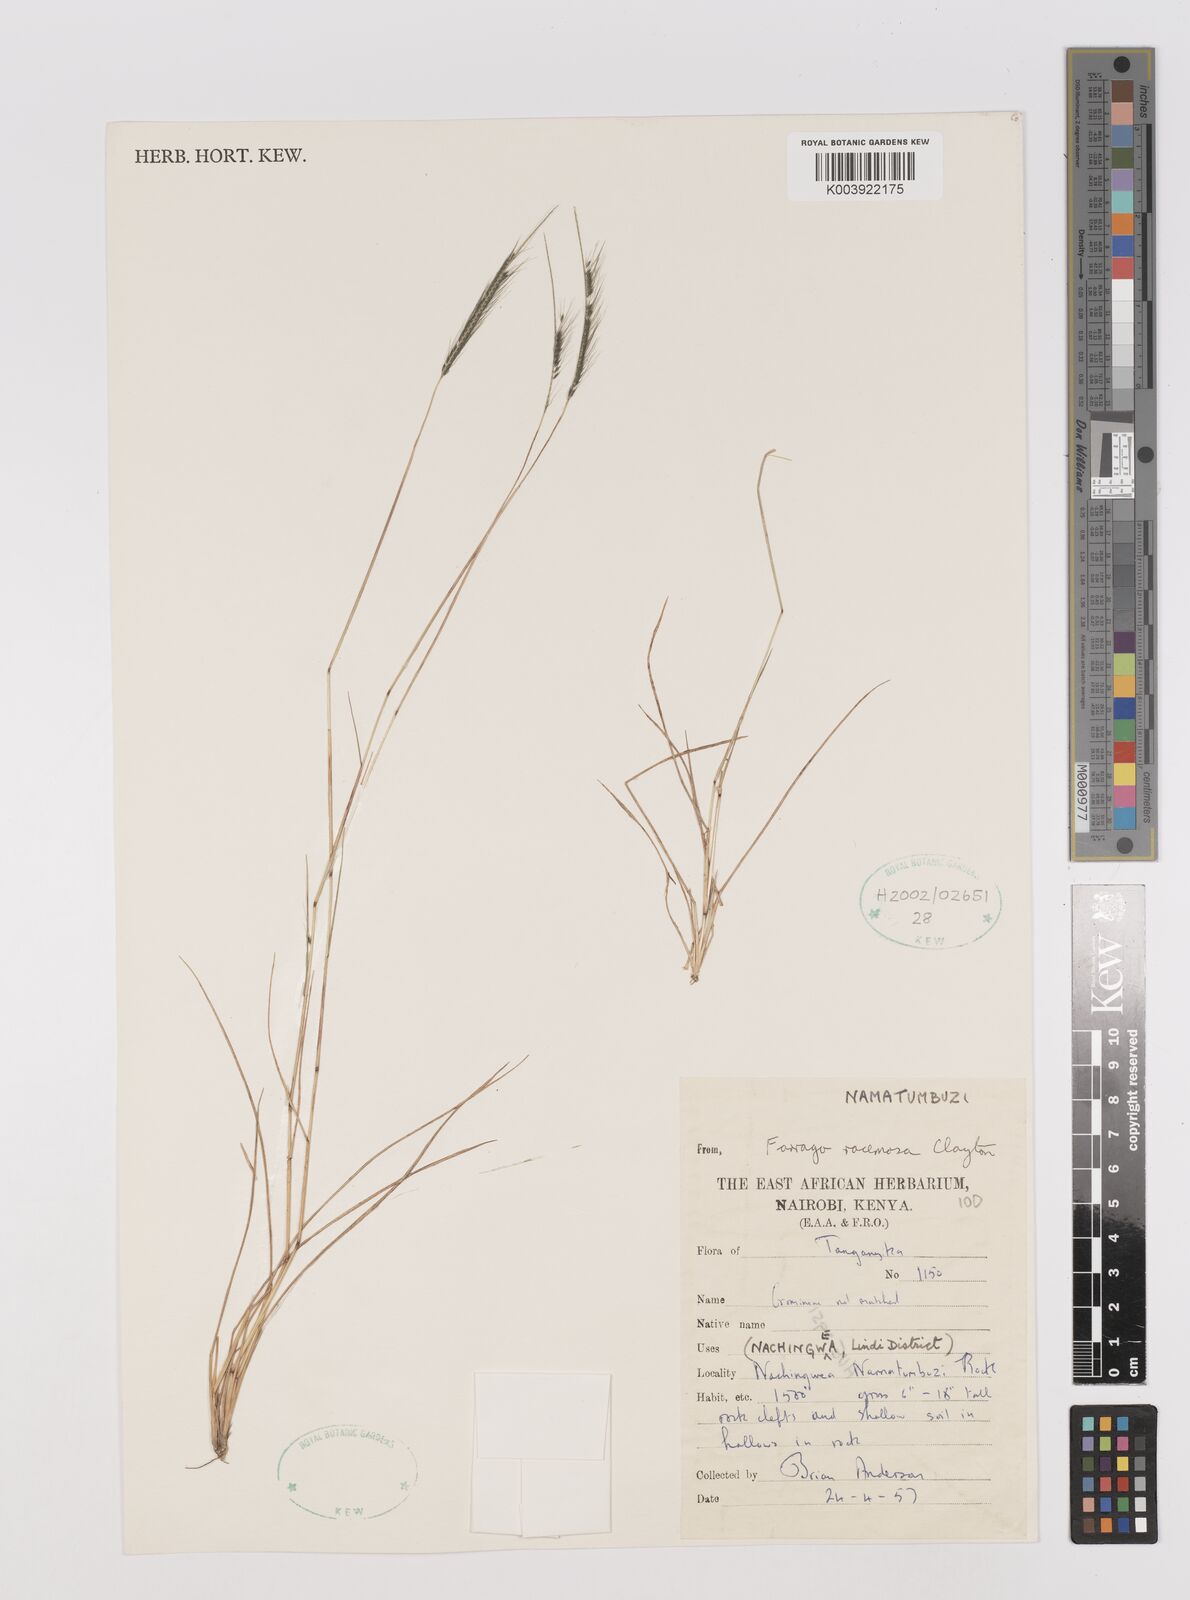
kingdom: Plantae
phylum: Tracheophyta
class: Liliopsida
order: Poales
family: Poaceae
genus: Farrago
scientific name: Farrago racemosa
